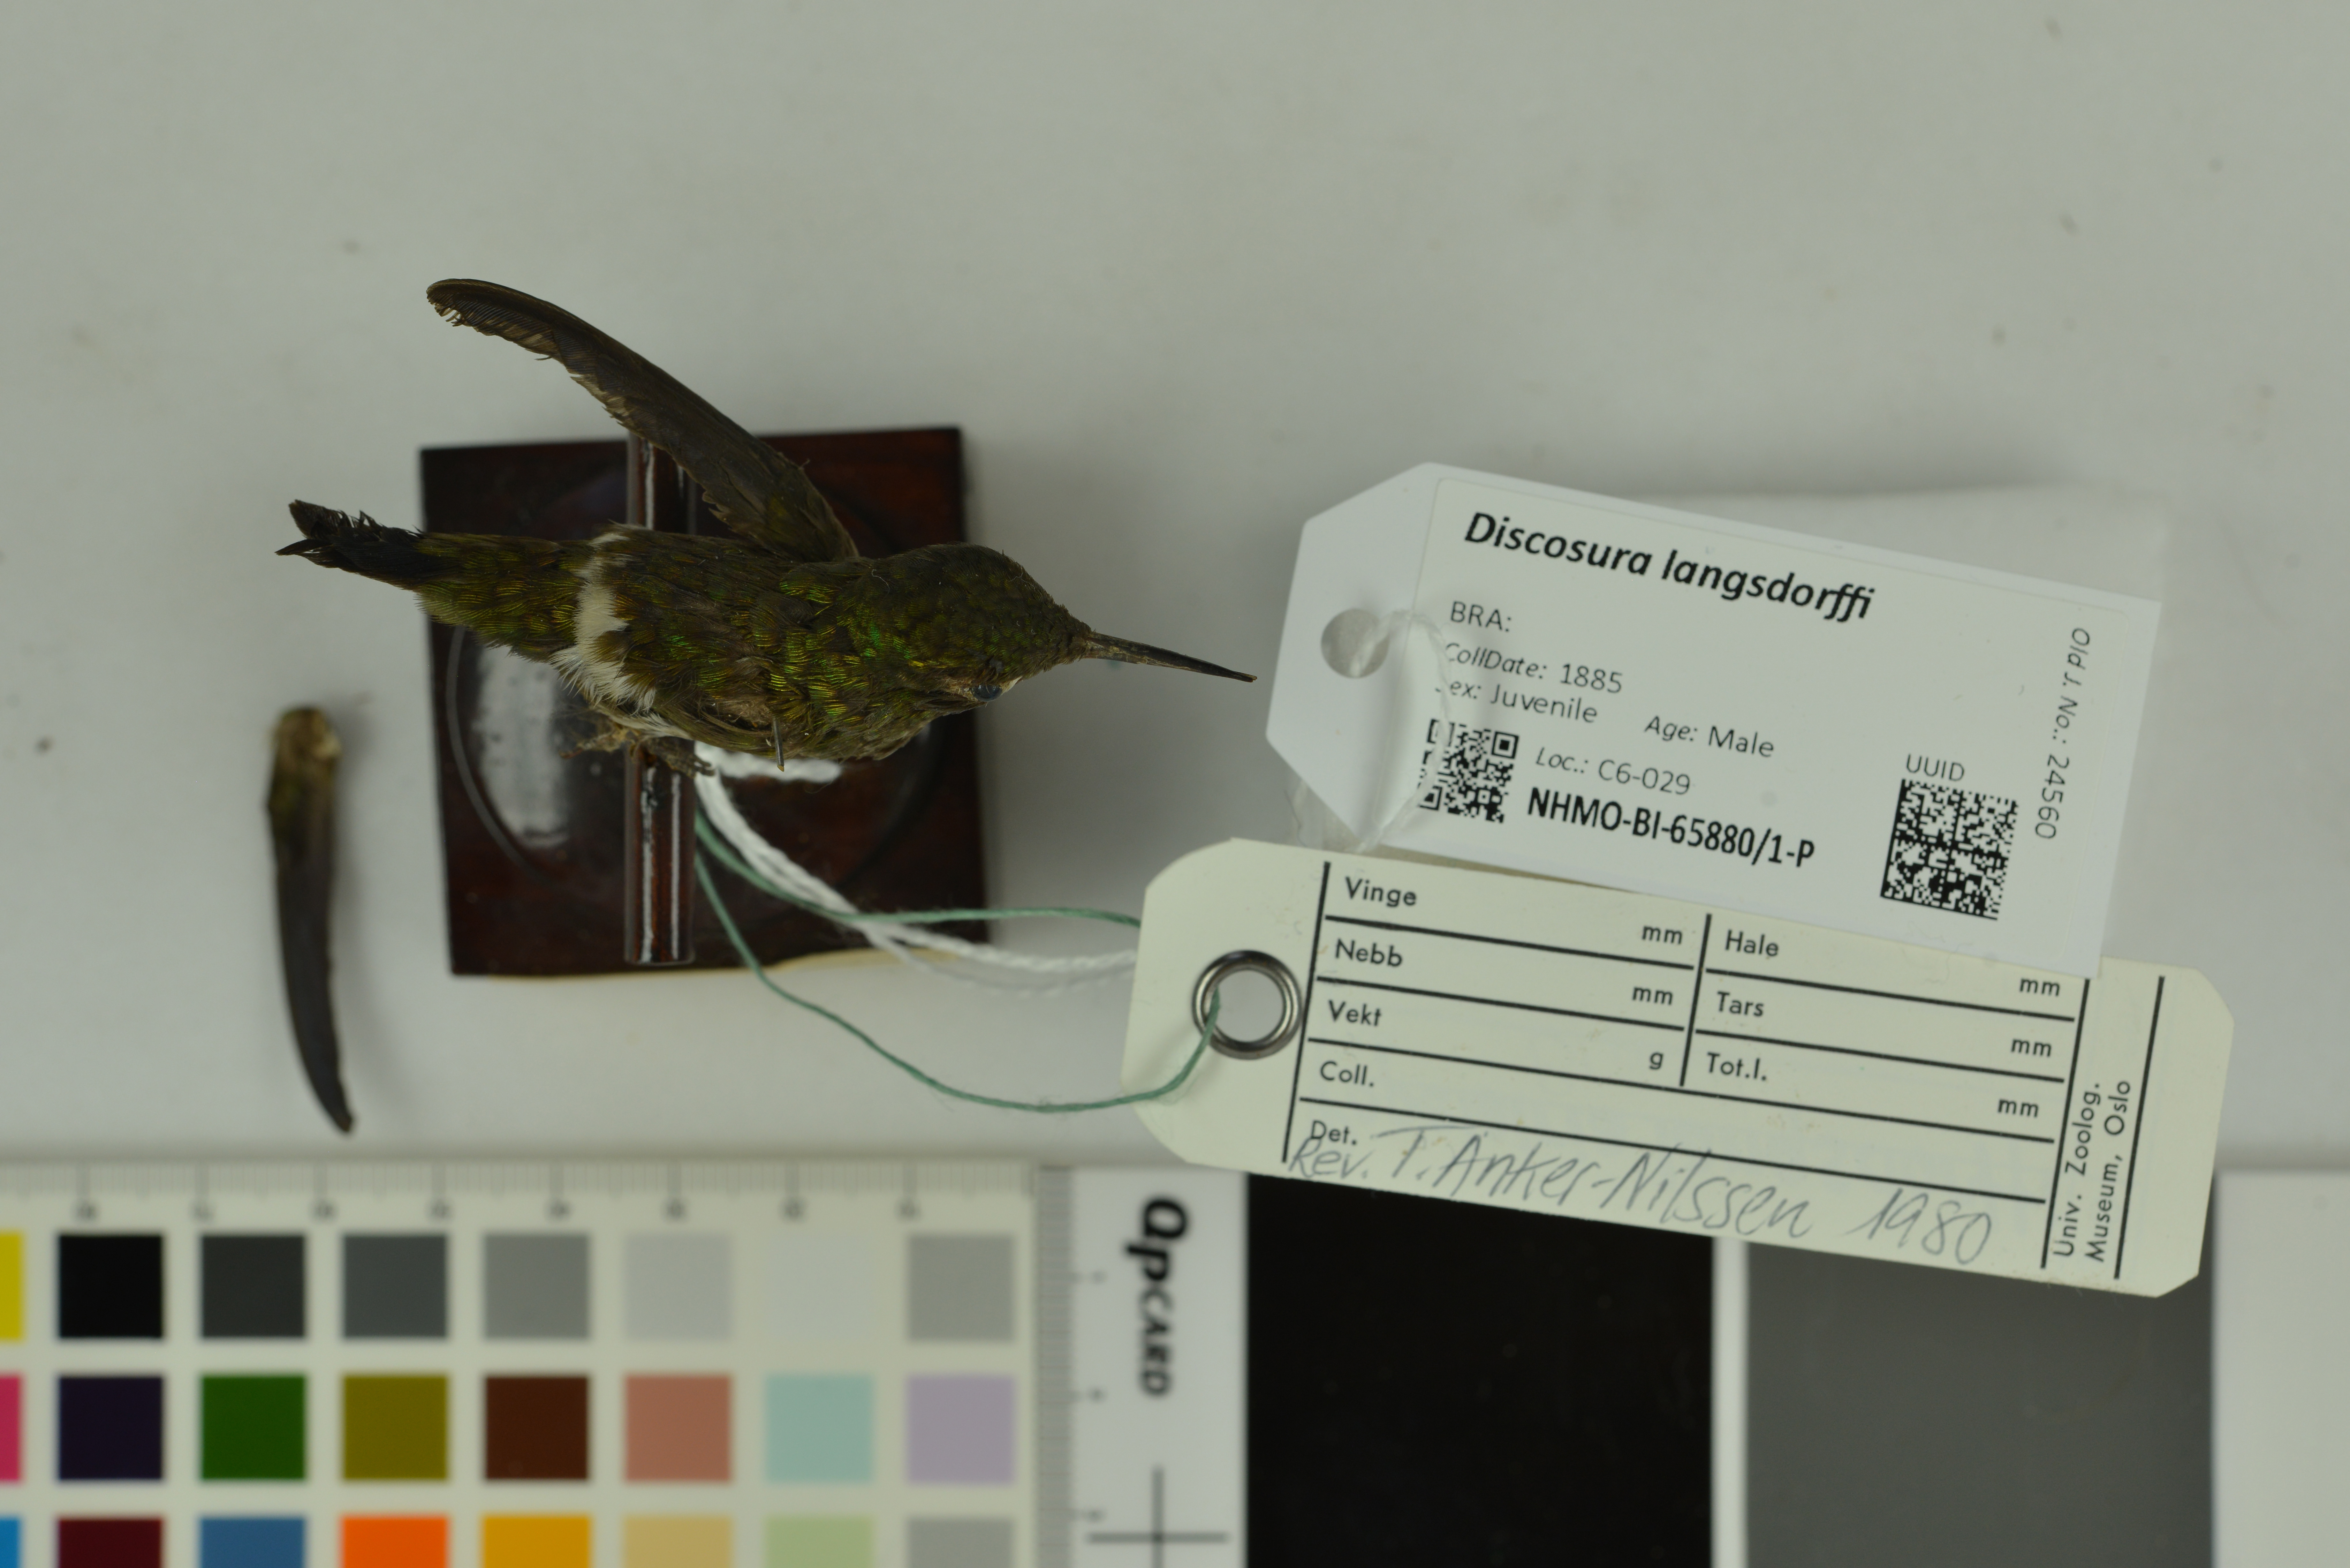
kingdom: Animalia
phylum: Chordata
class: Aves
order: Apodiformes
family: Trochilidae
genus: Discosura
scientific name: Discosura langsdorffi
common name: Black-bellied thorntail
